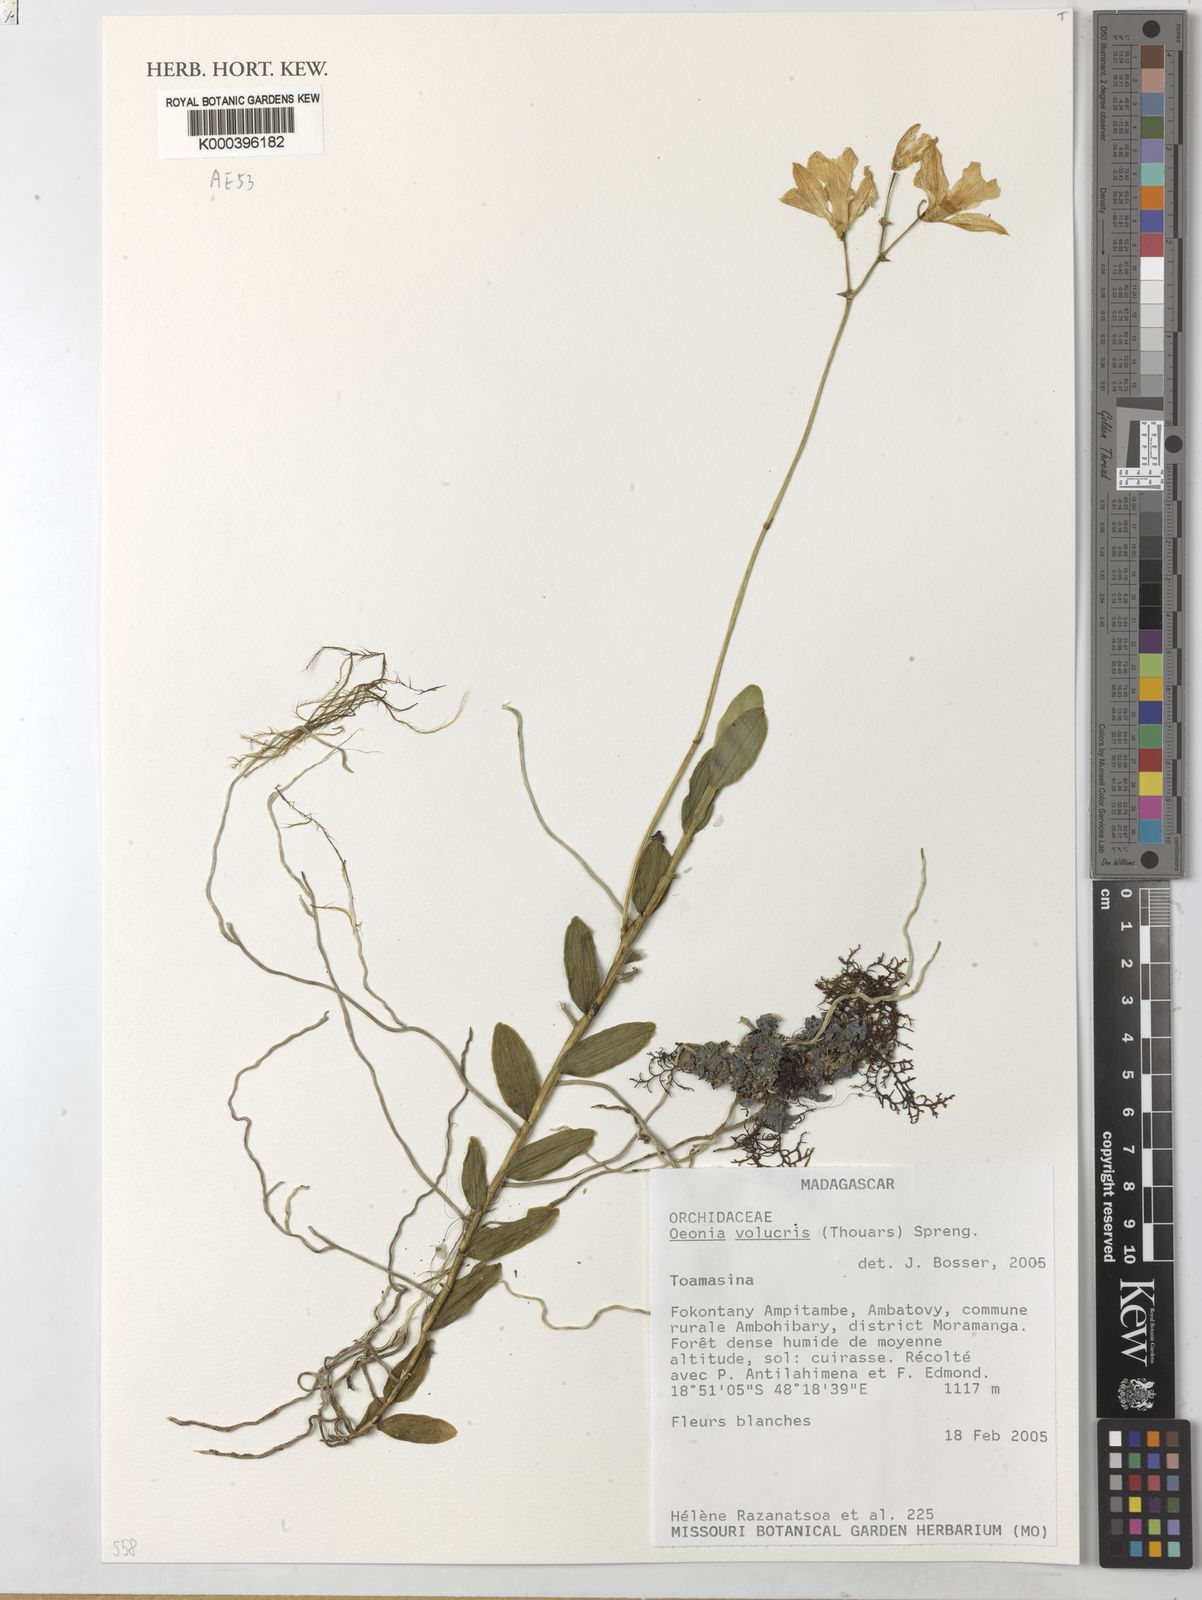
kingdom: Plantae
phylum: Tracheophyta
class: Liliopsida
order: Asparagales
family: Orchidaceae
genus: Oeonia
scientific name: Oeonia volucris
